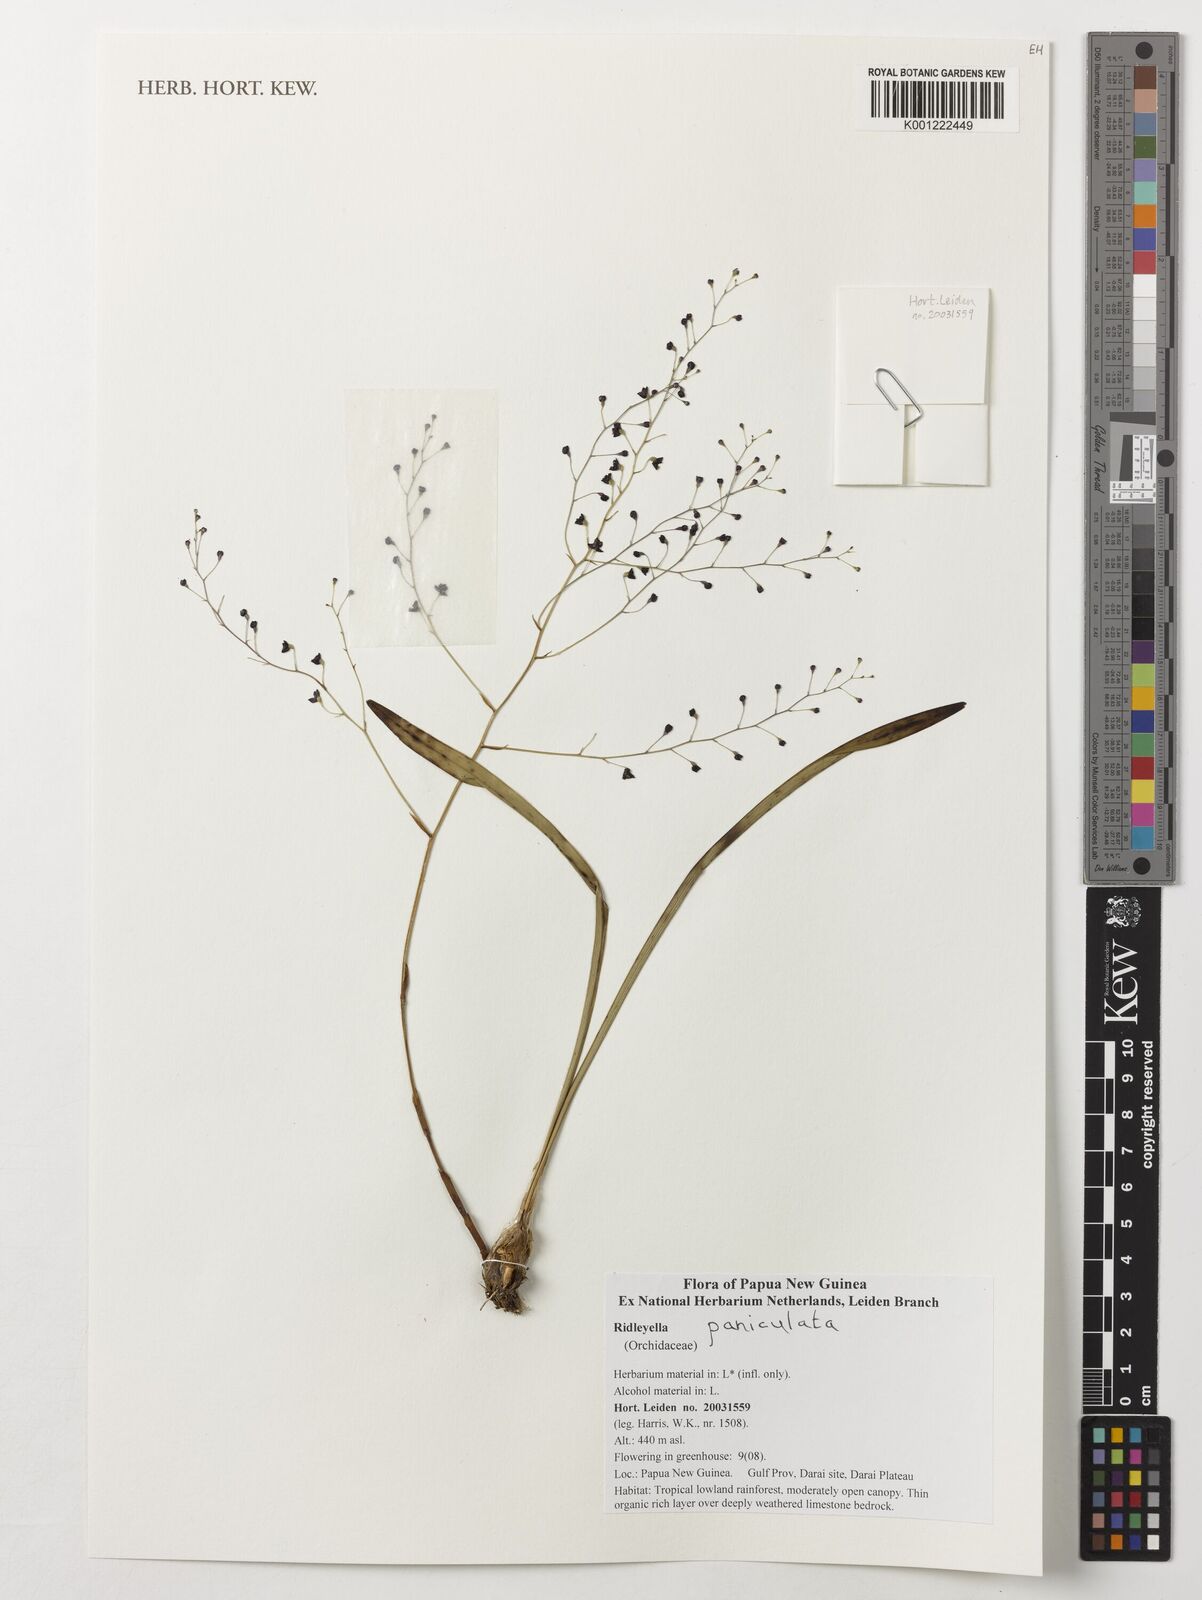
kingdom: Plantae
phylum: Tracheophyta
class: Liliopsida
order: Asparagales
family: Orchidaceae
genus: Ridleyella
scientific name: Ridleyella paniculata
